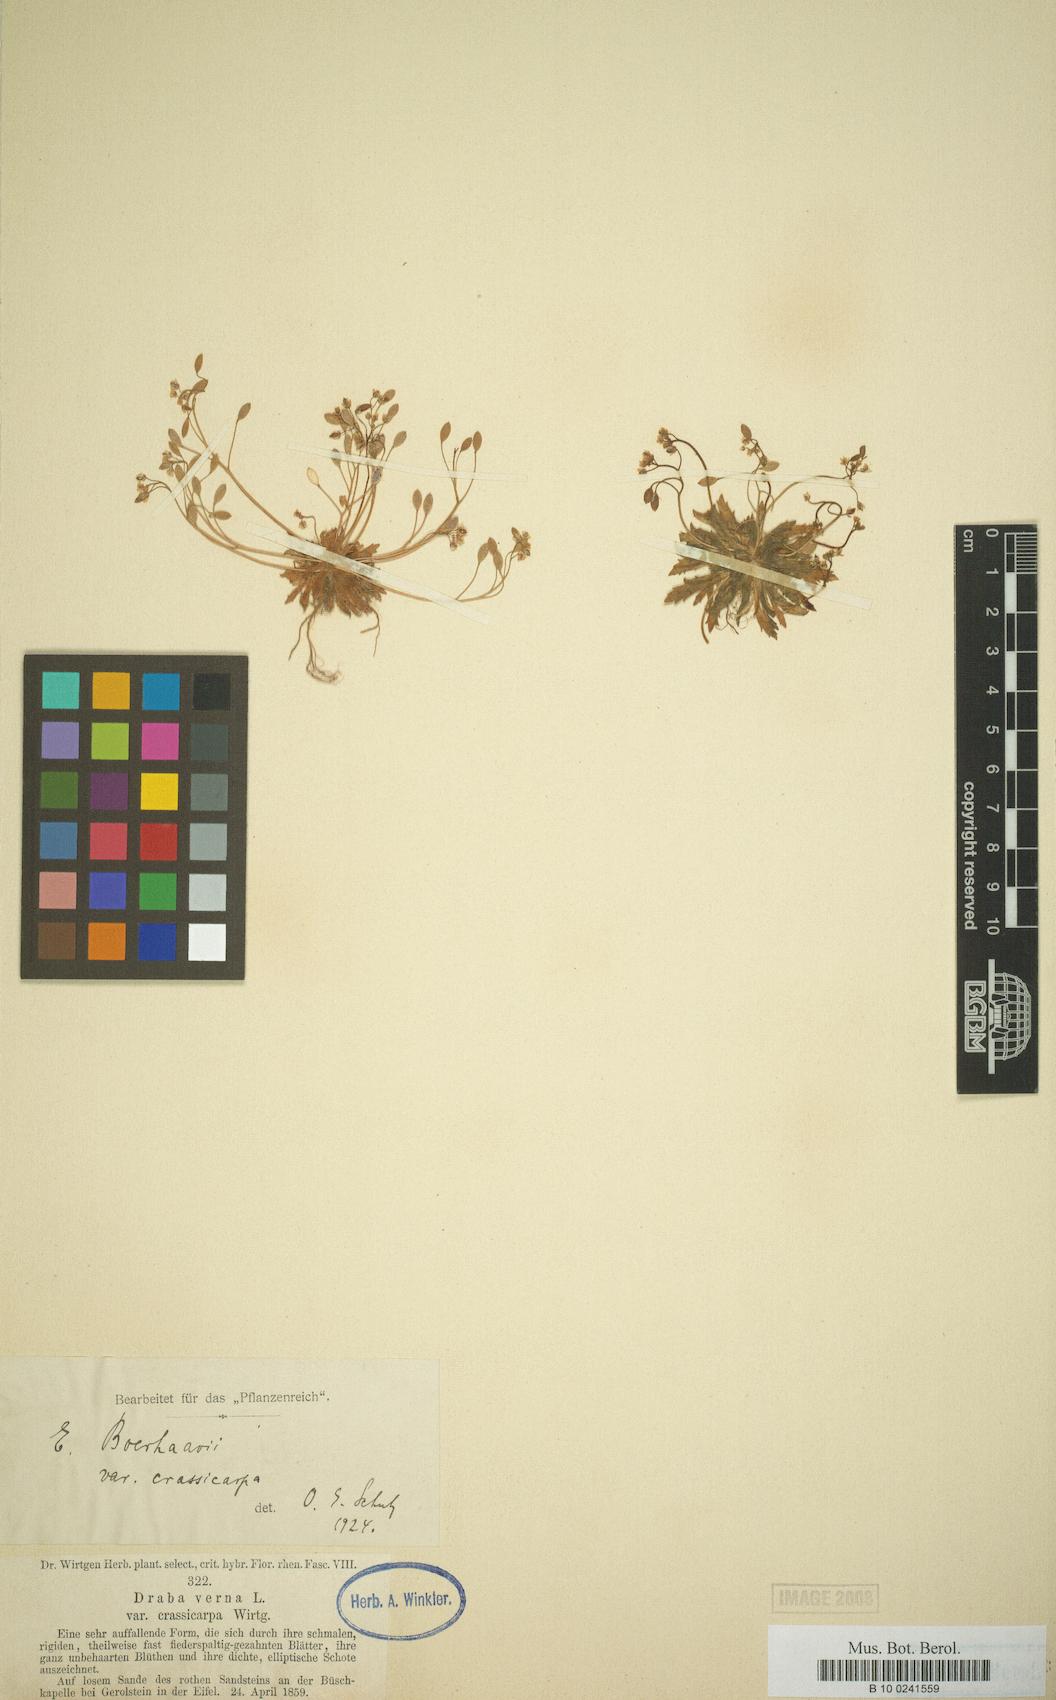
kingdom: Plantae
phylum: Tracheophyta
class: Magnoliopsida
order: Brassicales
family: Brassicaceae
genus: Draba
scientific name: Draba verna
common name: Spring draba
